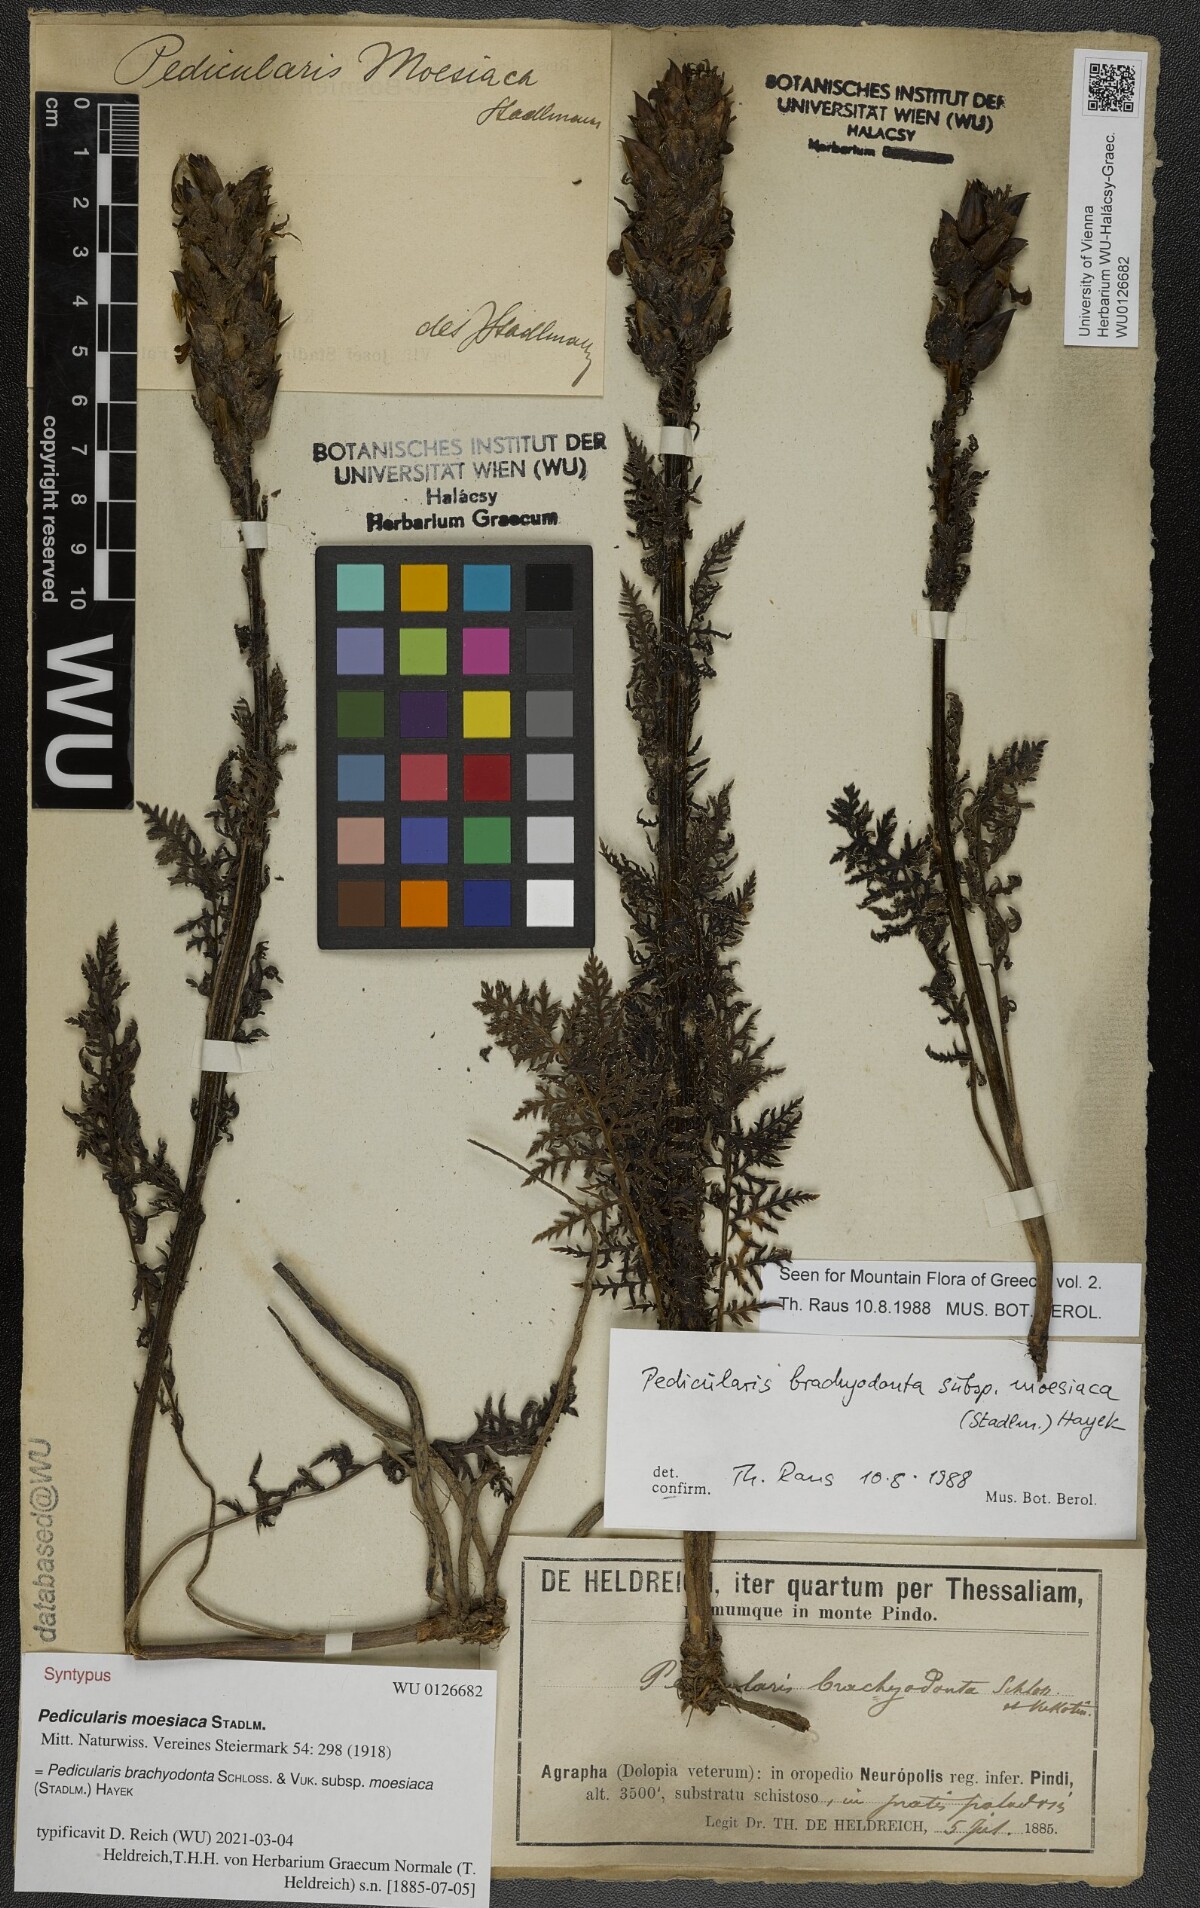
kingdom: Plantae
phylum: Tracheophyta
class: Magnoliopsida
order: Lamiales
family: Orobanchaceae
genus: Pedicularis
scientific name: Pedicularis brachyodonta
